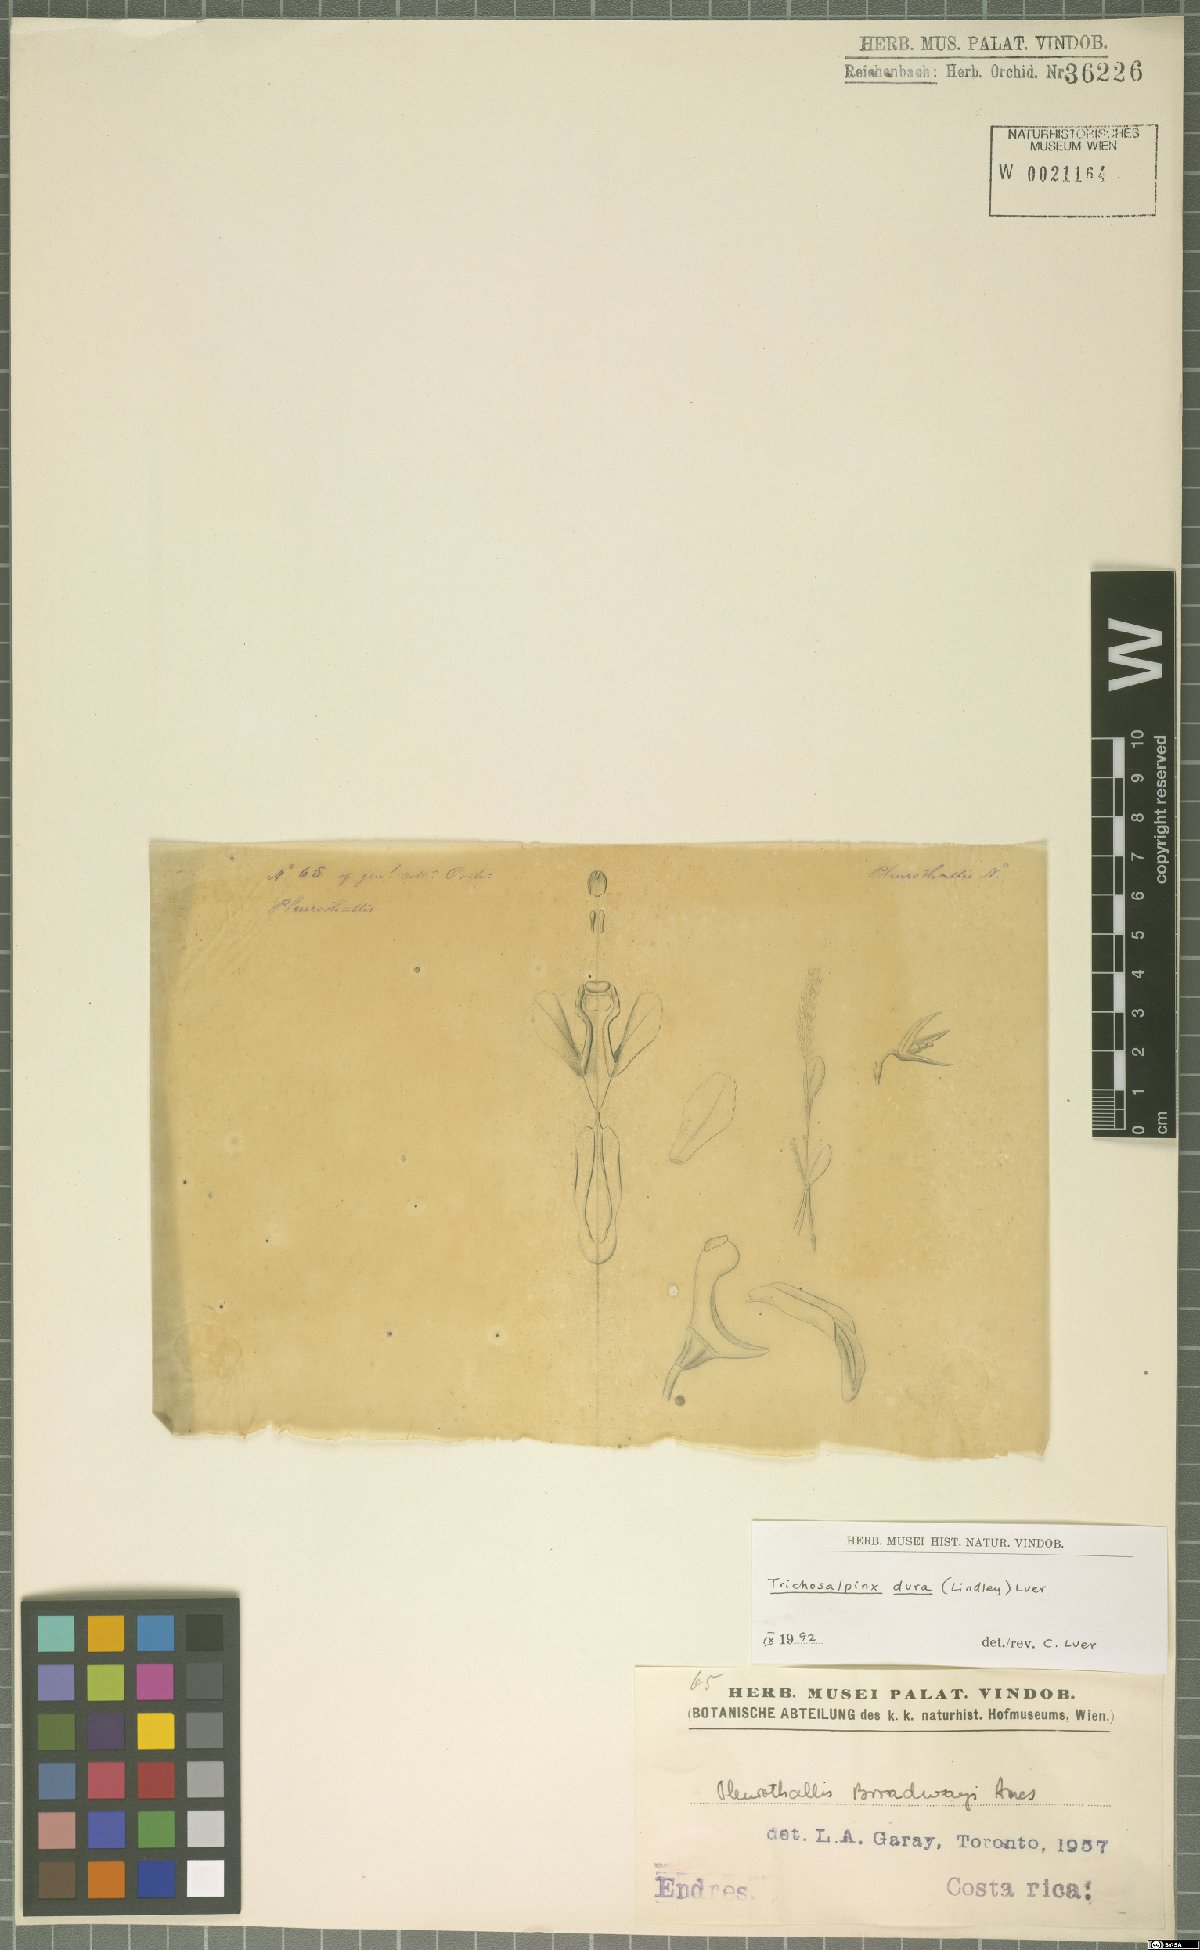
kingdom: Plantae
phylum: Tracheophyta
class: Liliopsida
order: Asparagales
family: Orchidaceae
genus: Trichosalpinx
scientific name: Trichosalpinx dura
